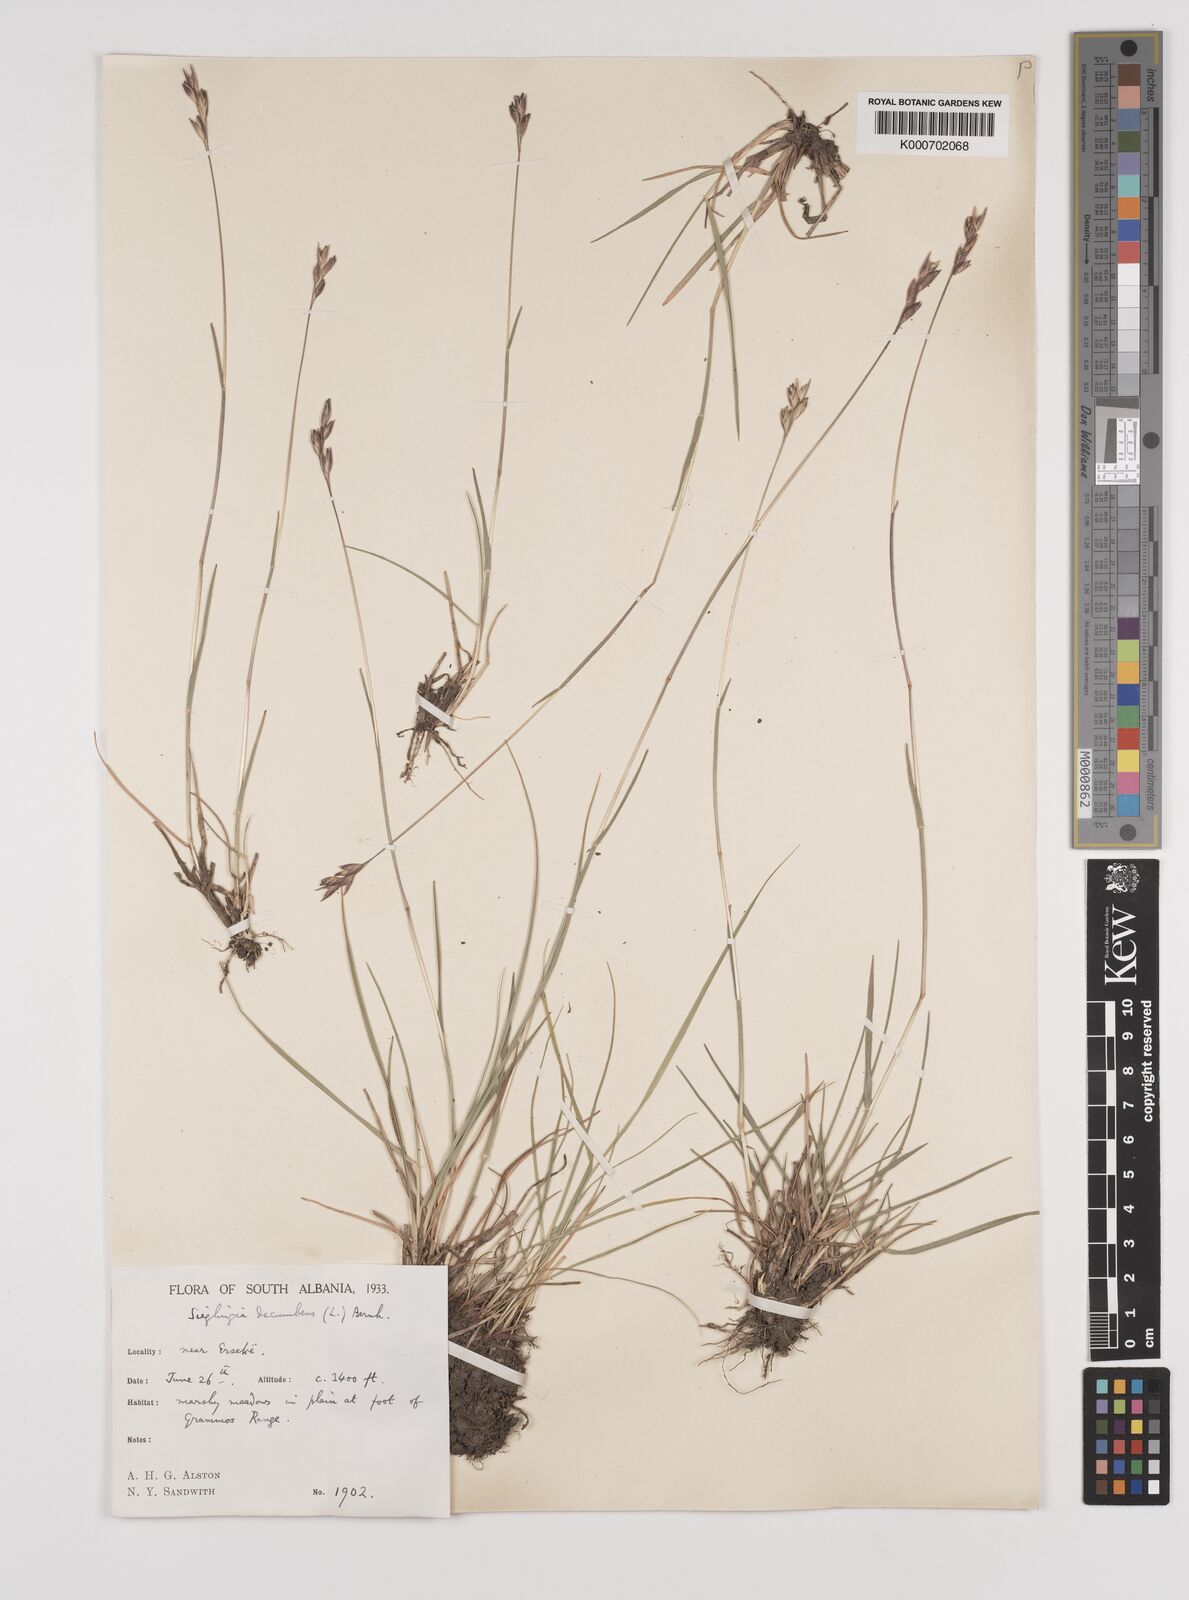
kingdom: Plantae
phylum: Tracheophyta
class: Liliopsida
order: Poales
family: Poaceae
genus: Danthonia
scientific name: Danthonia decumbens
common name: Common heathgrass
